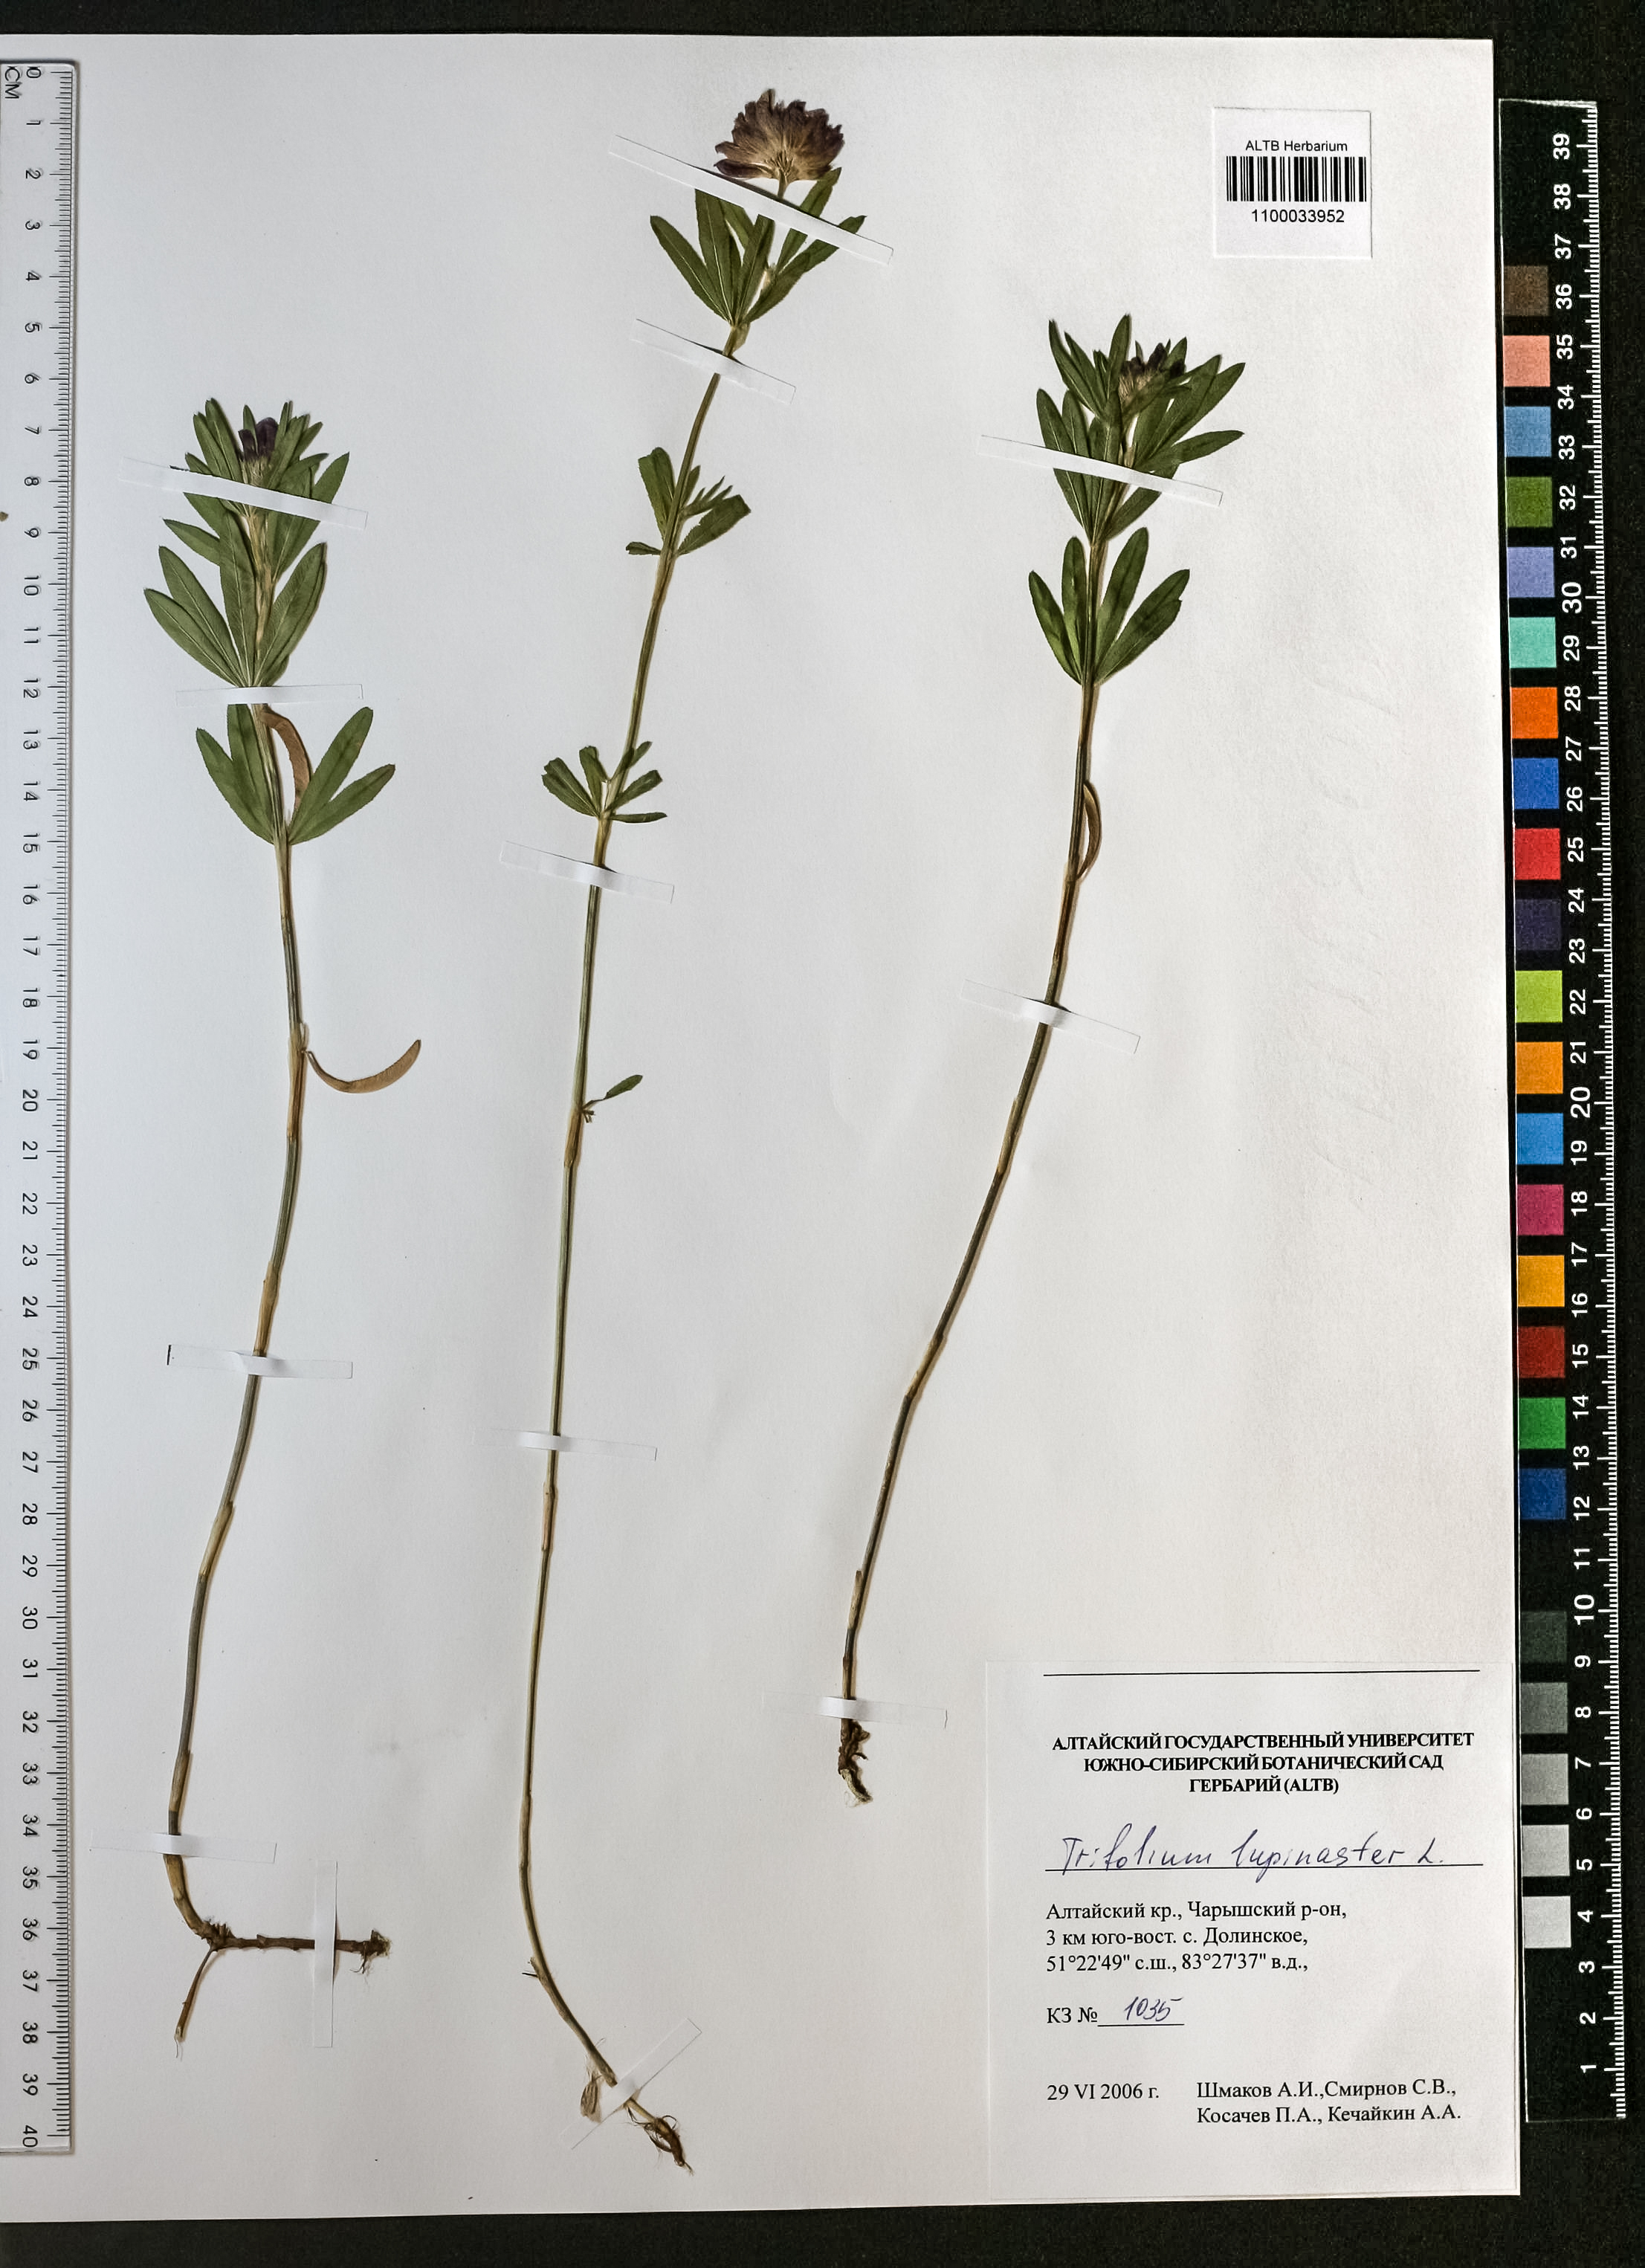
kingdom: Plantae
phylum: Tracheophyta
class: Magnoliopsida
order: Fabales
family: Fabaceae
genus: Trifolium
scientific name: Trifolium lupinaster
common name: Lupine clover
